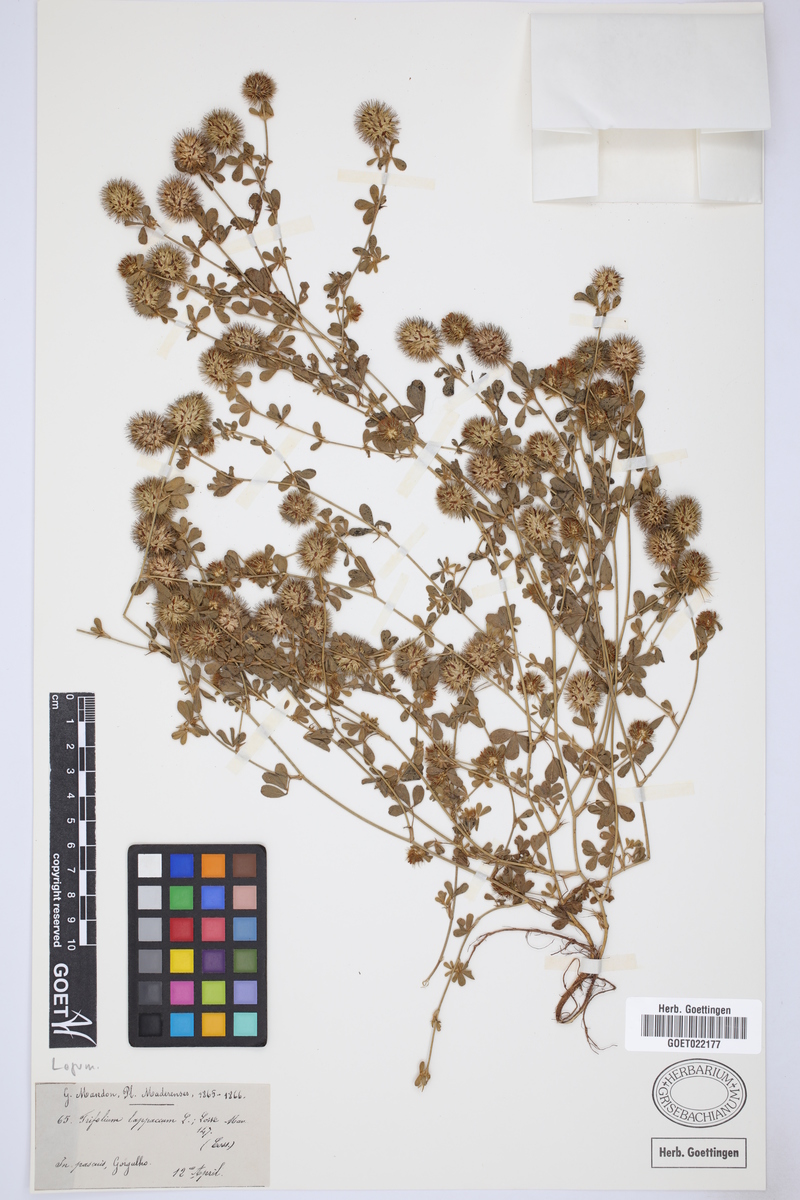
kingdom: Plantae
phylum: Tracheophyta
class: Magnoliopsida
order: Fabales
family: Fabaceae
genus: Trifolium
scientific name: Trifolium lappaceum
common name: Bur clover
